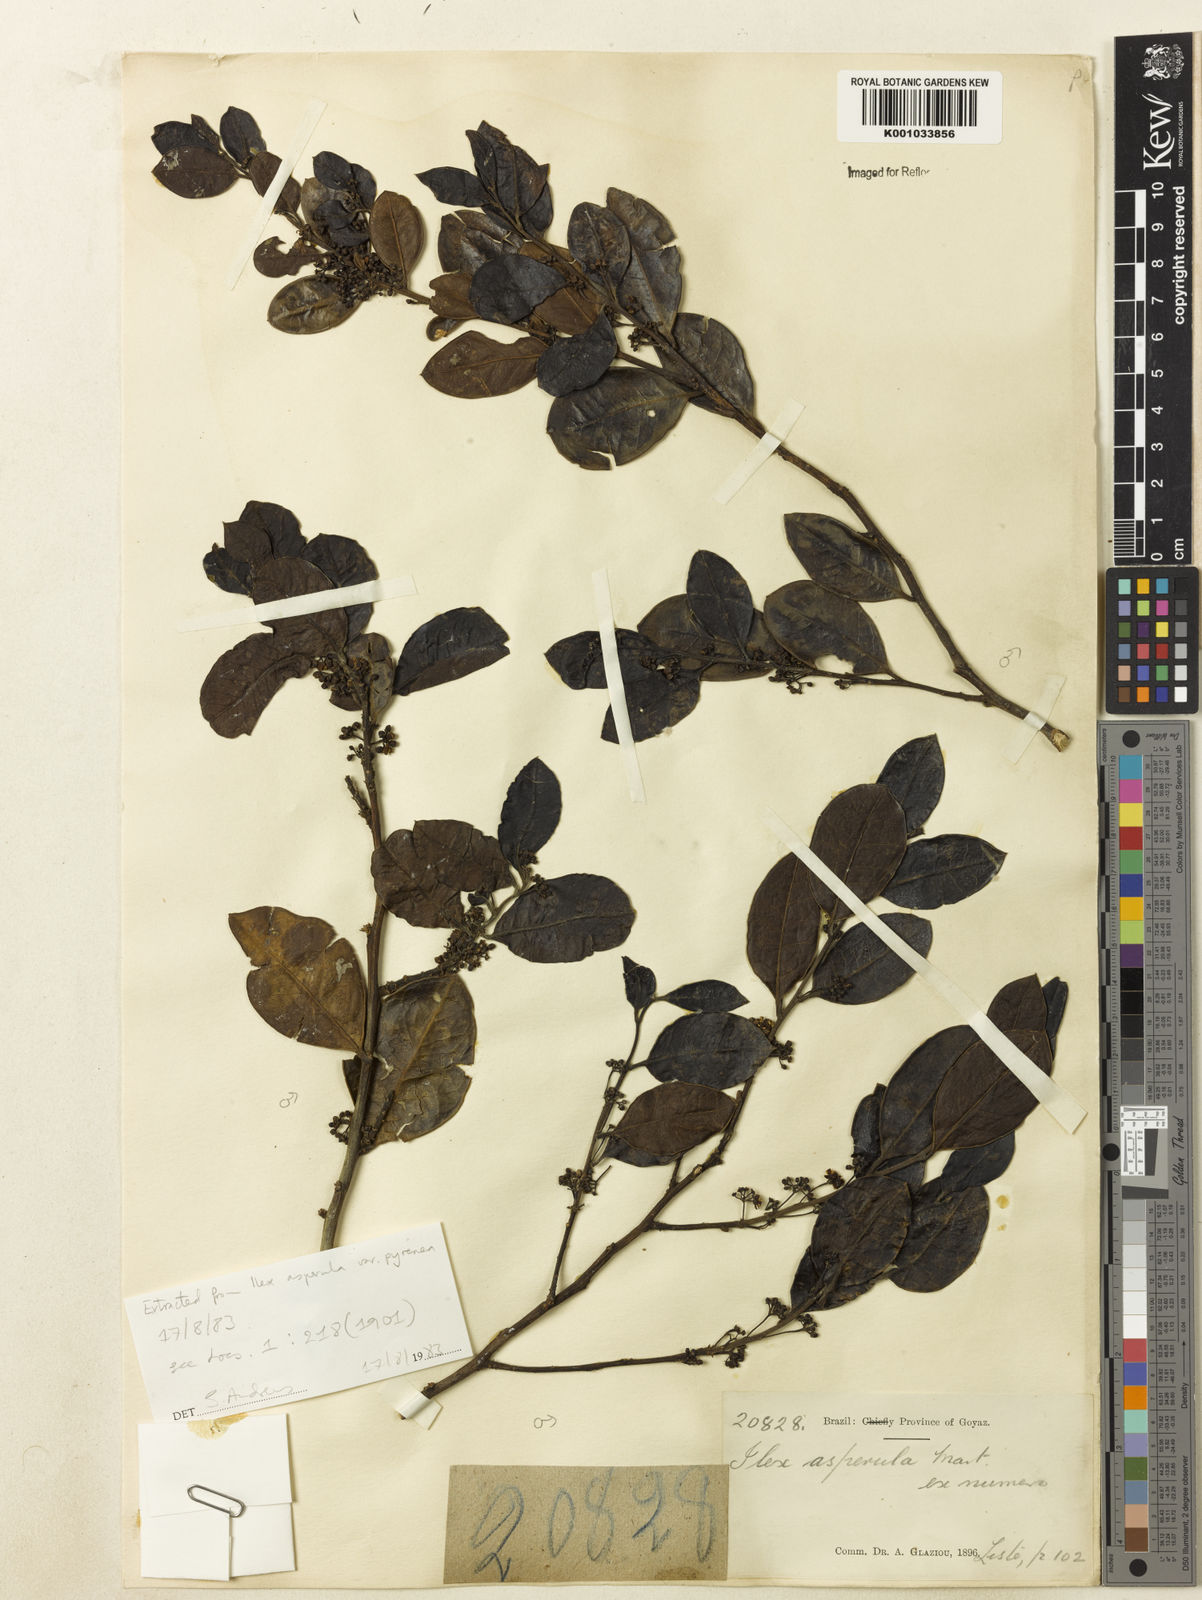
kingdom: Plantae
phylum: Tracheophyta
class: Magnoliopsida
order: Aquifoliales
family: Aquifoliaceae
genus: Ilex
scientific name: Ilex hypopsile
